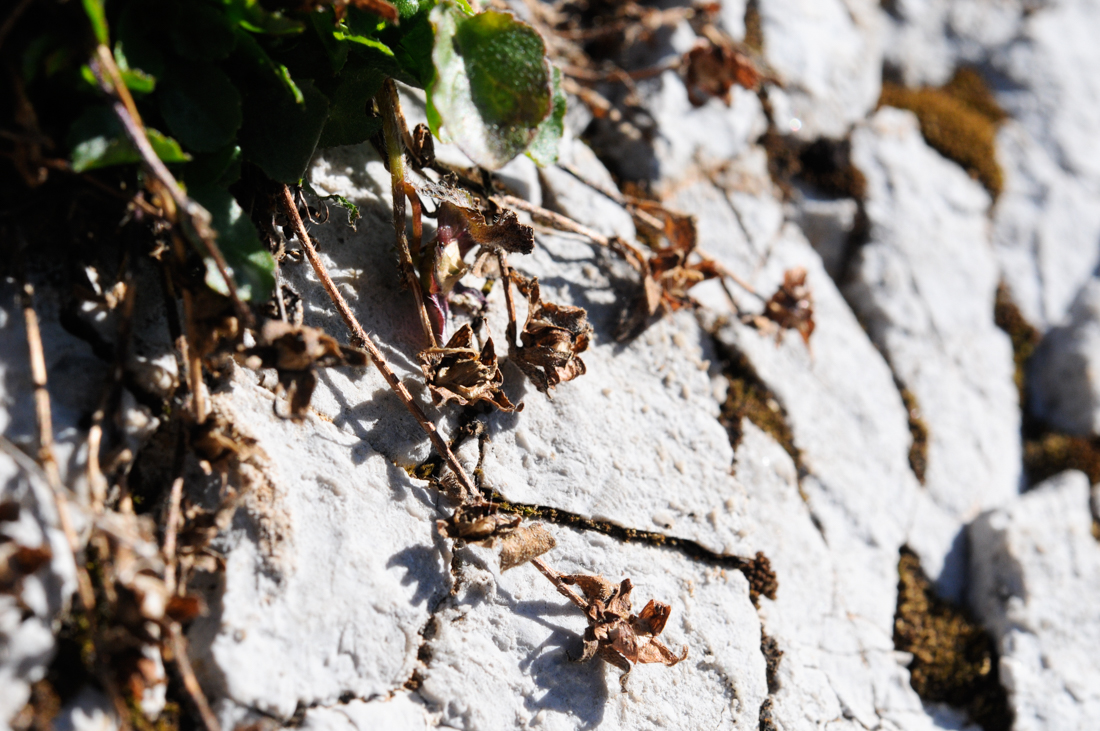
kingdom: Plantae
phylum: Tracheophyta
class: Magnoliopsida
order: Asterales
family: Campanulaceae
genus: Campanula
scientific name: Campanula parnassica
